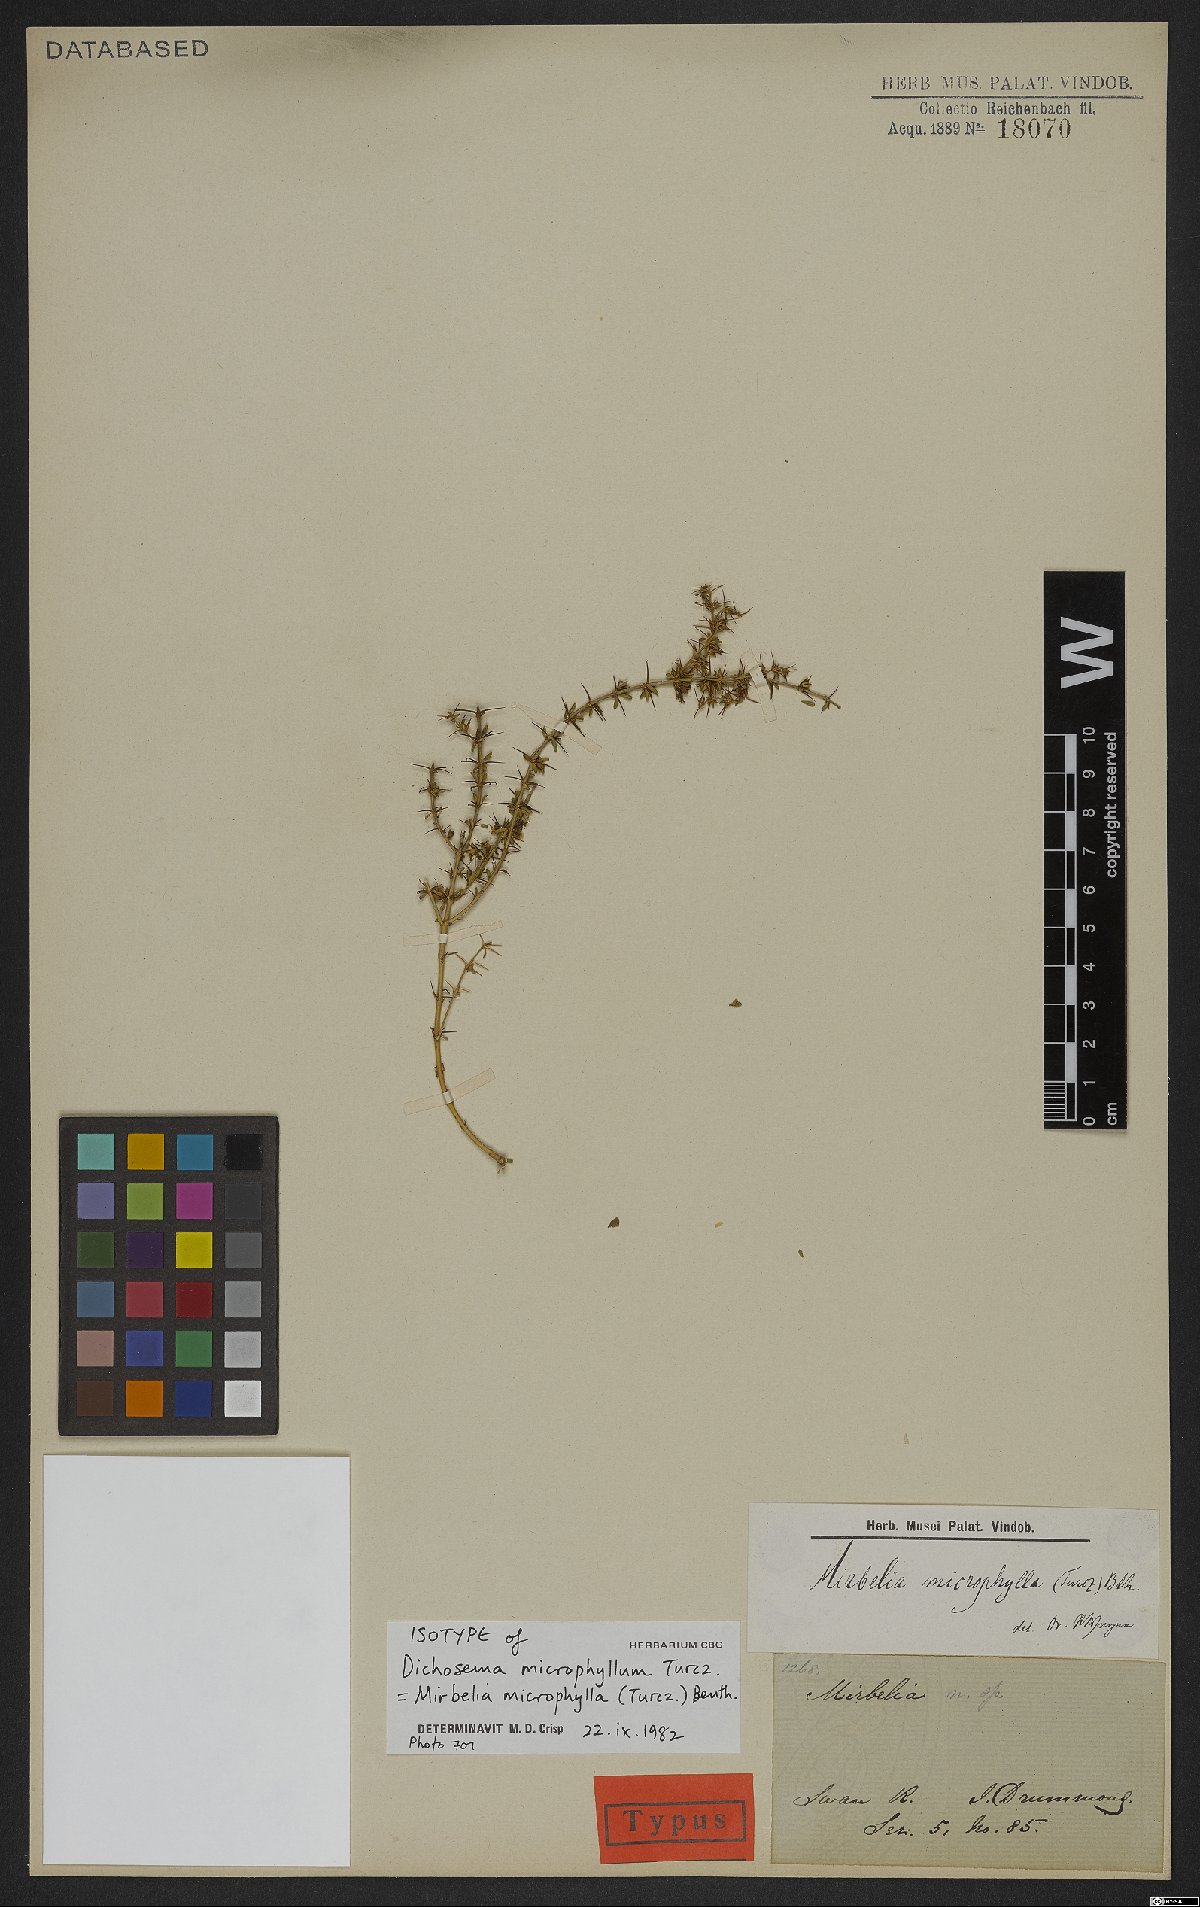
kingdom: Plantae
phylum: Tracheophyta
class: Magnoliopsida
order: Fabales
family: Fabaceae
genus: Mirbelia
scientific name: Mirbelia microphylla
